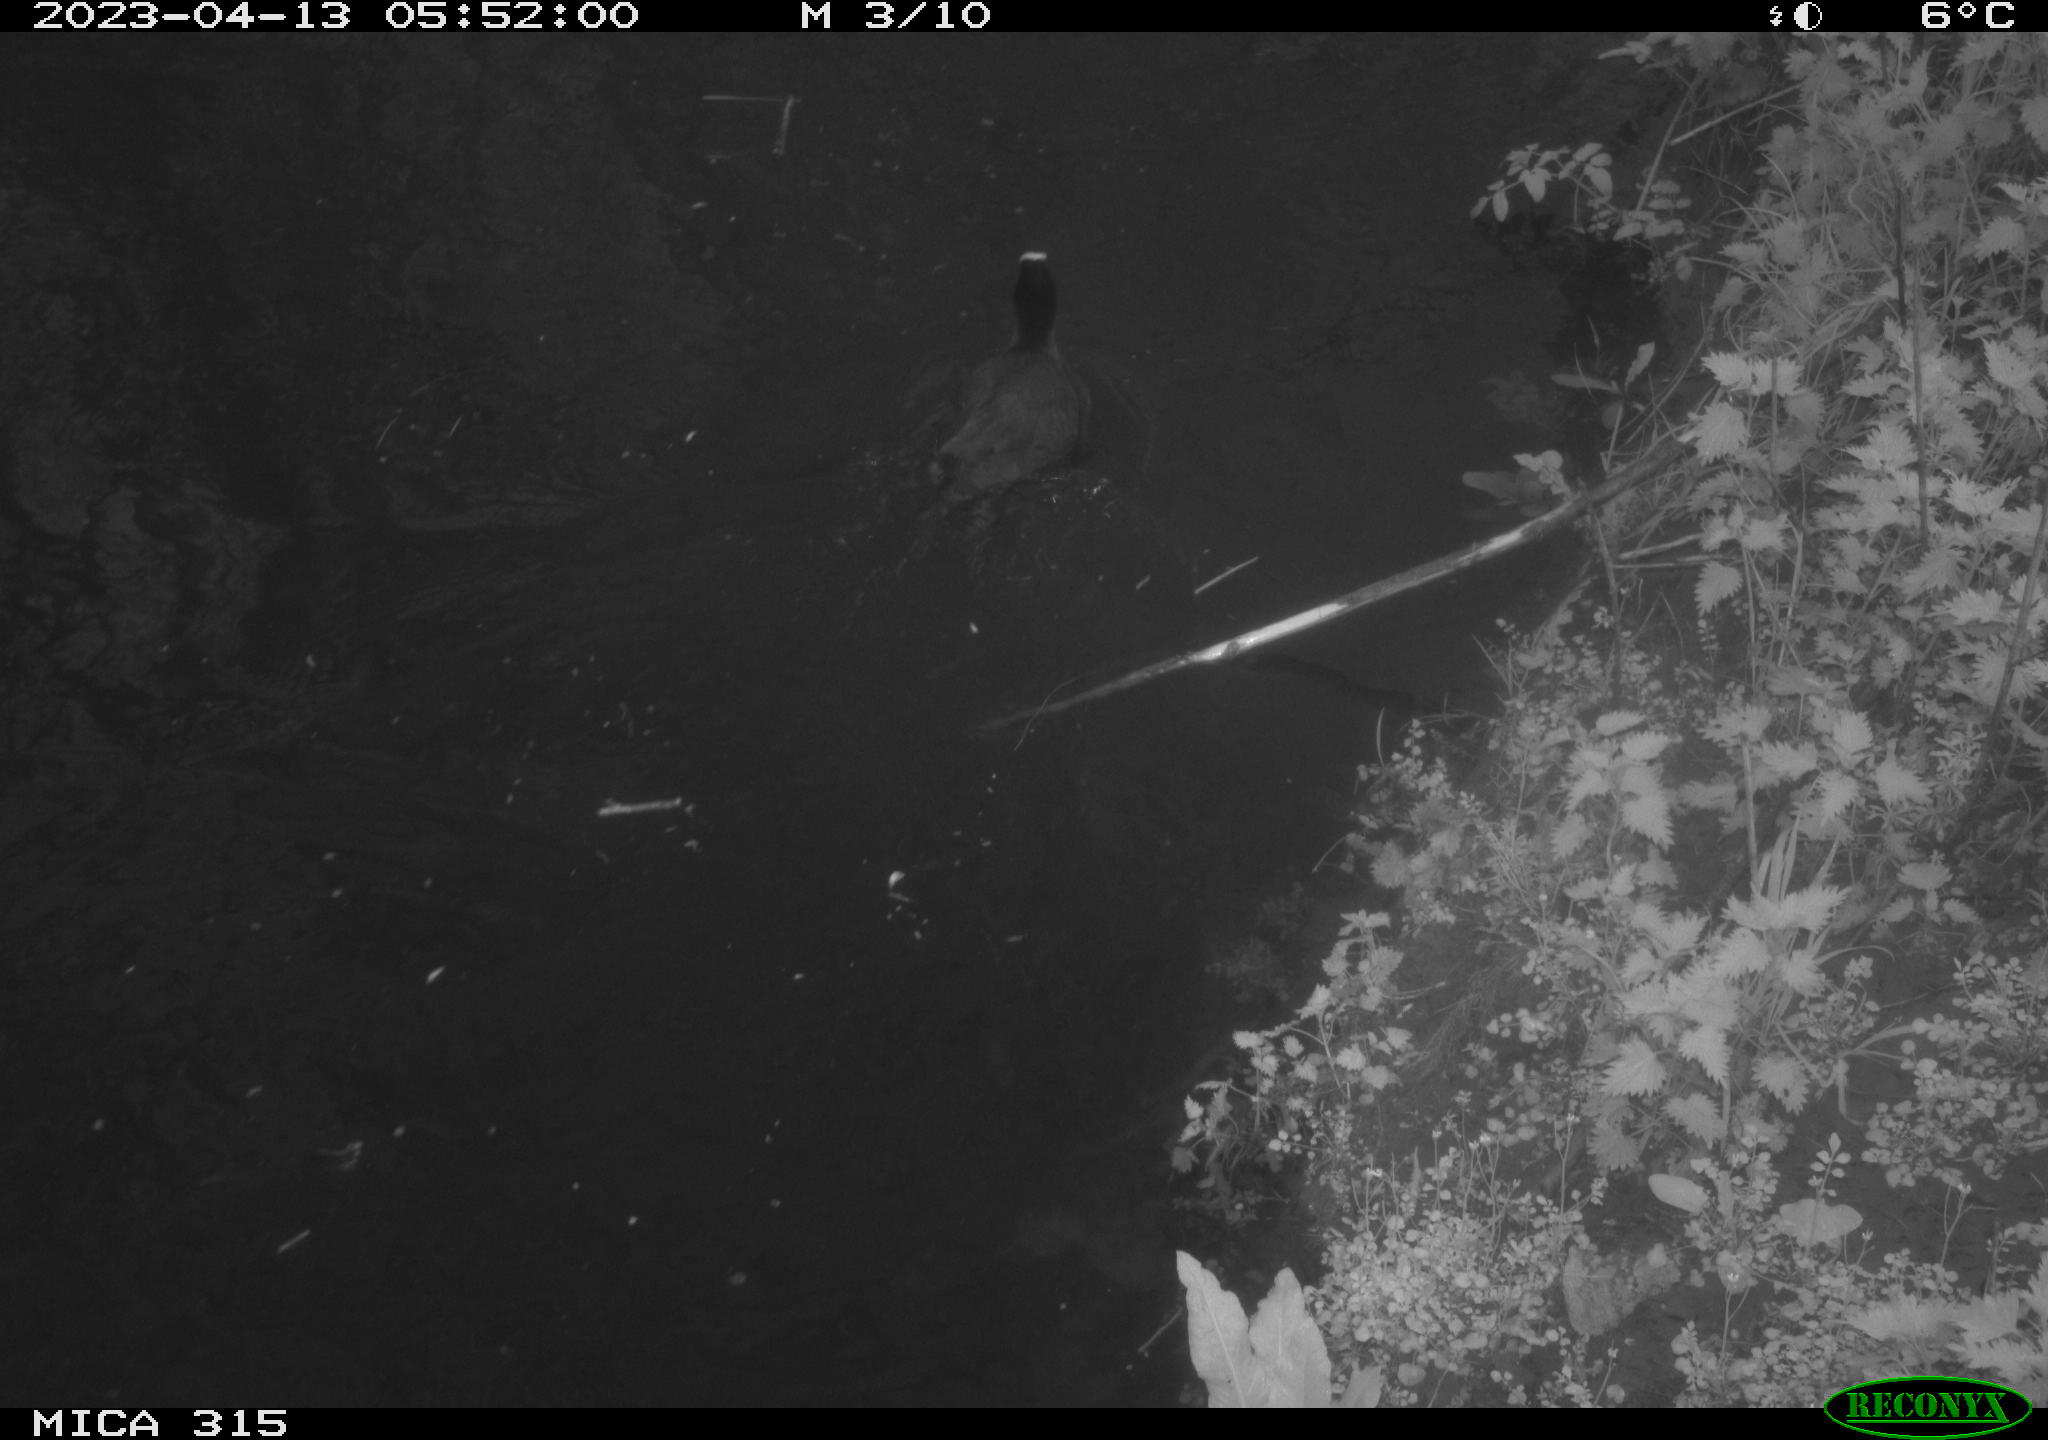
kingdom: Animalia
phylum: Chordata
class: Aves
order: Gruiformes
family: Rallidae
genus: Fulica
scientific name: Fulica atra
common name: Eurasian coot
